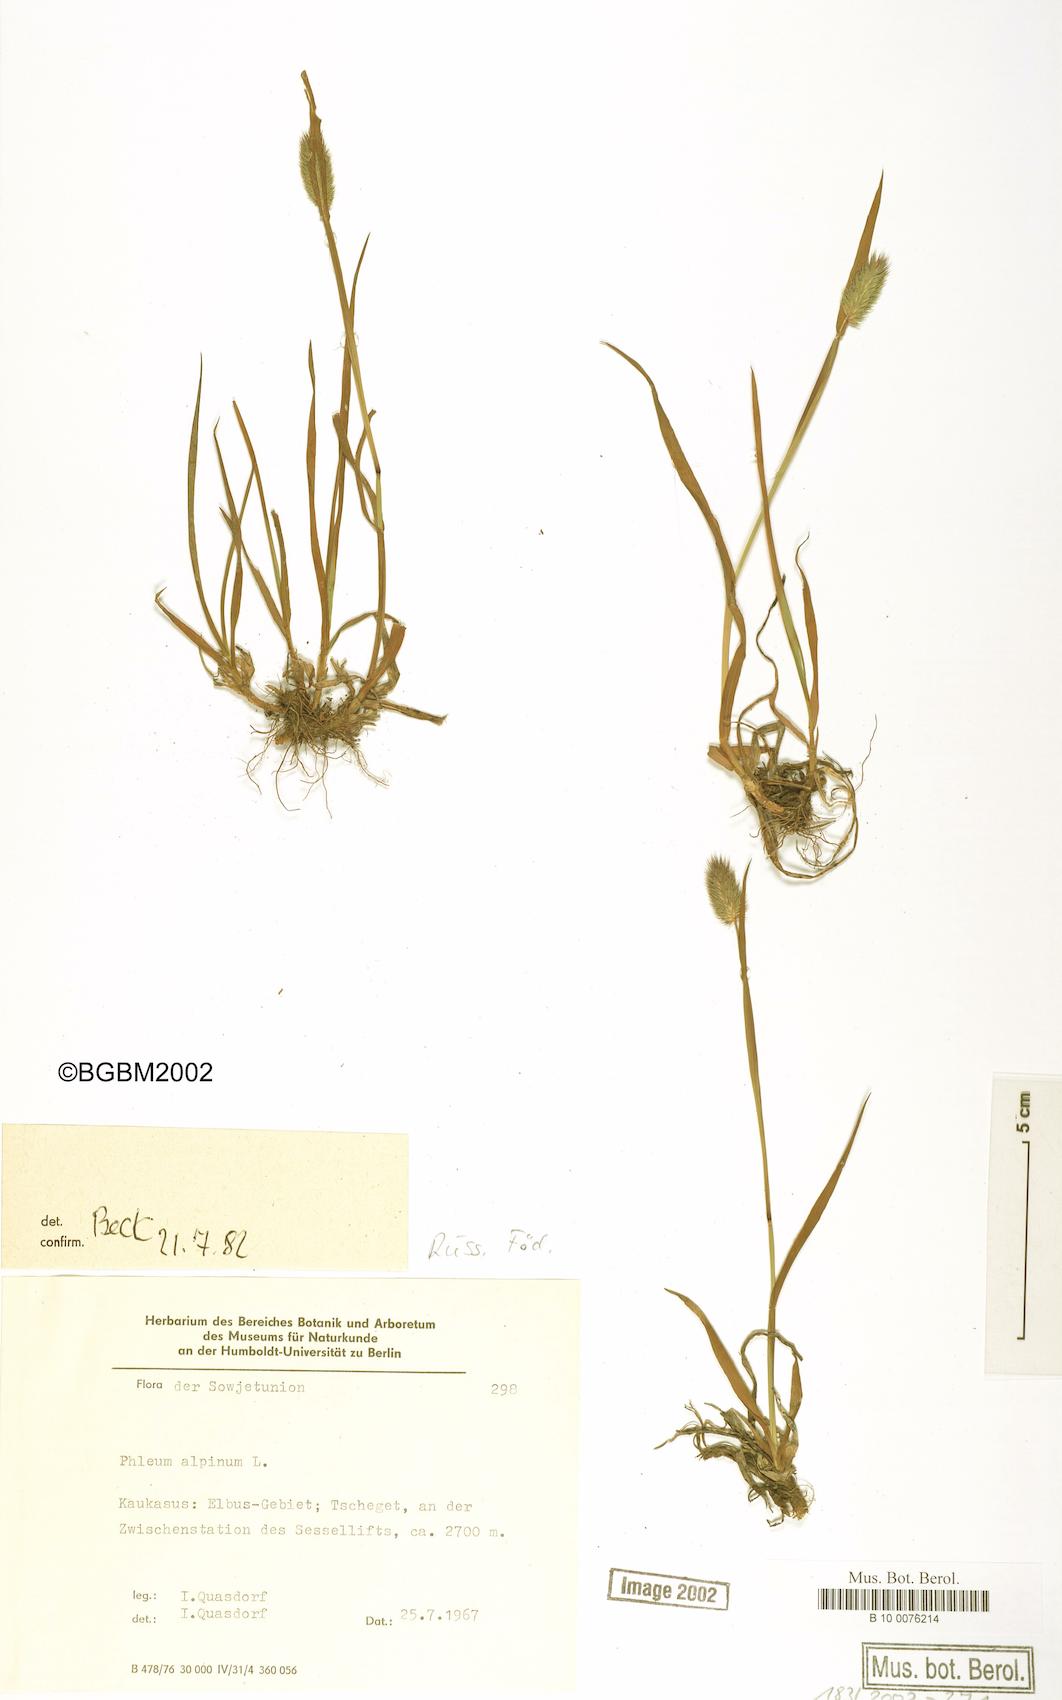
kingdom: Plantae
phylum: Tracheophyta
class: Liliopsida
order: Poales
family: Poaceae
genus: Phleum
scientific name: Phleum alpinum
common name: Alpine cat's-tail
